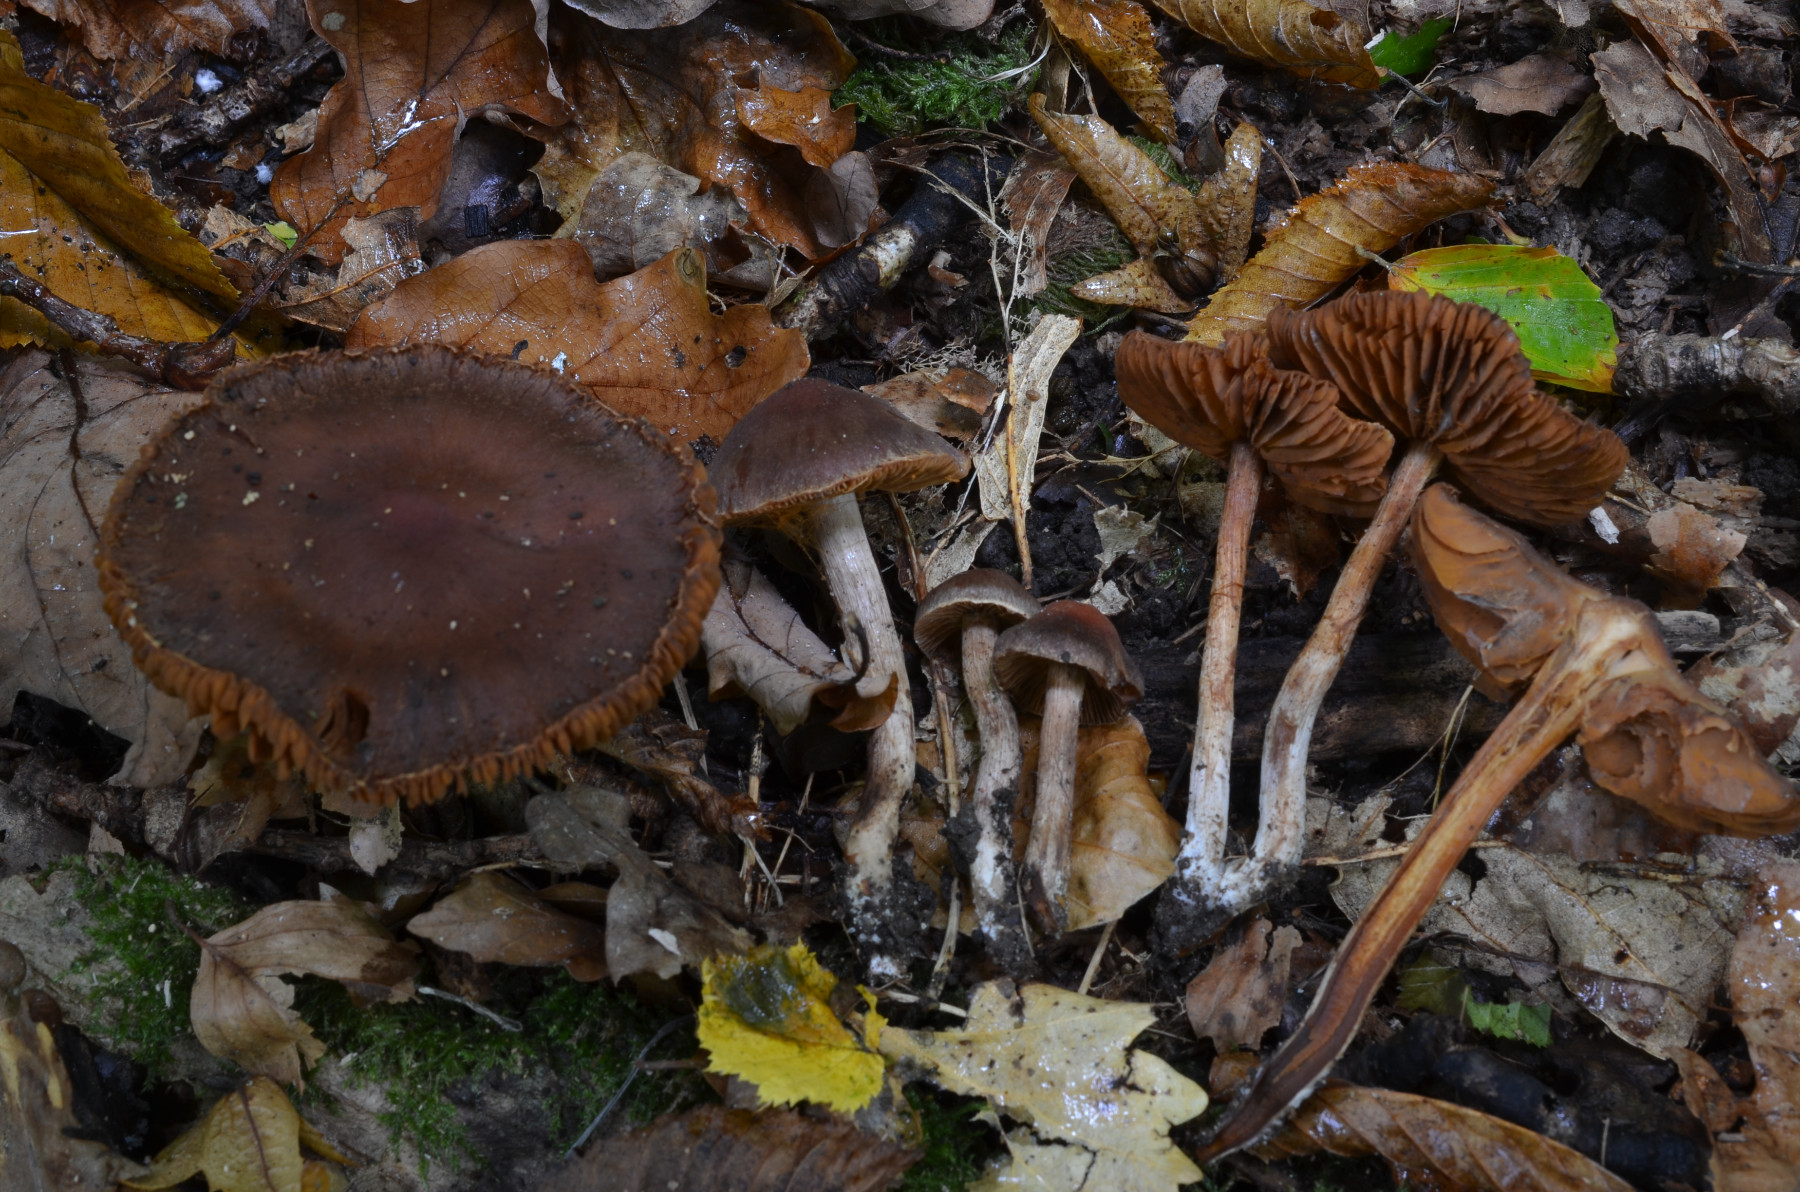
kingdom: Fungi
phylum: Basidiomycota
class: Agaricomycetes
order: Agaricales
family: Cortinariaceae
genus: Cortinarius
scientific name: Cortinarius fuscogracilescens
